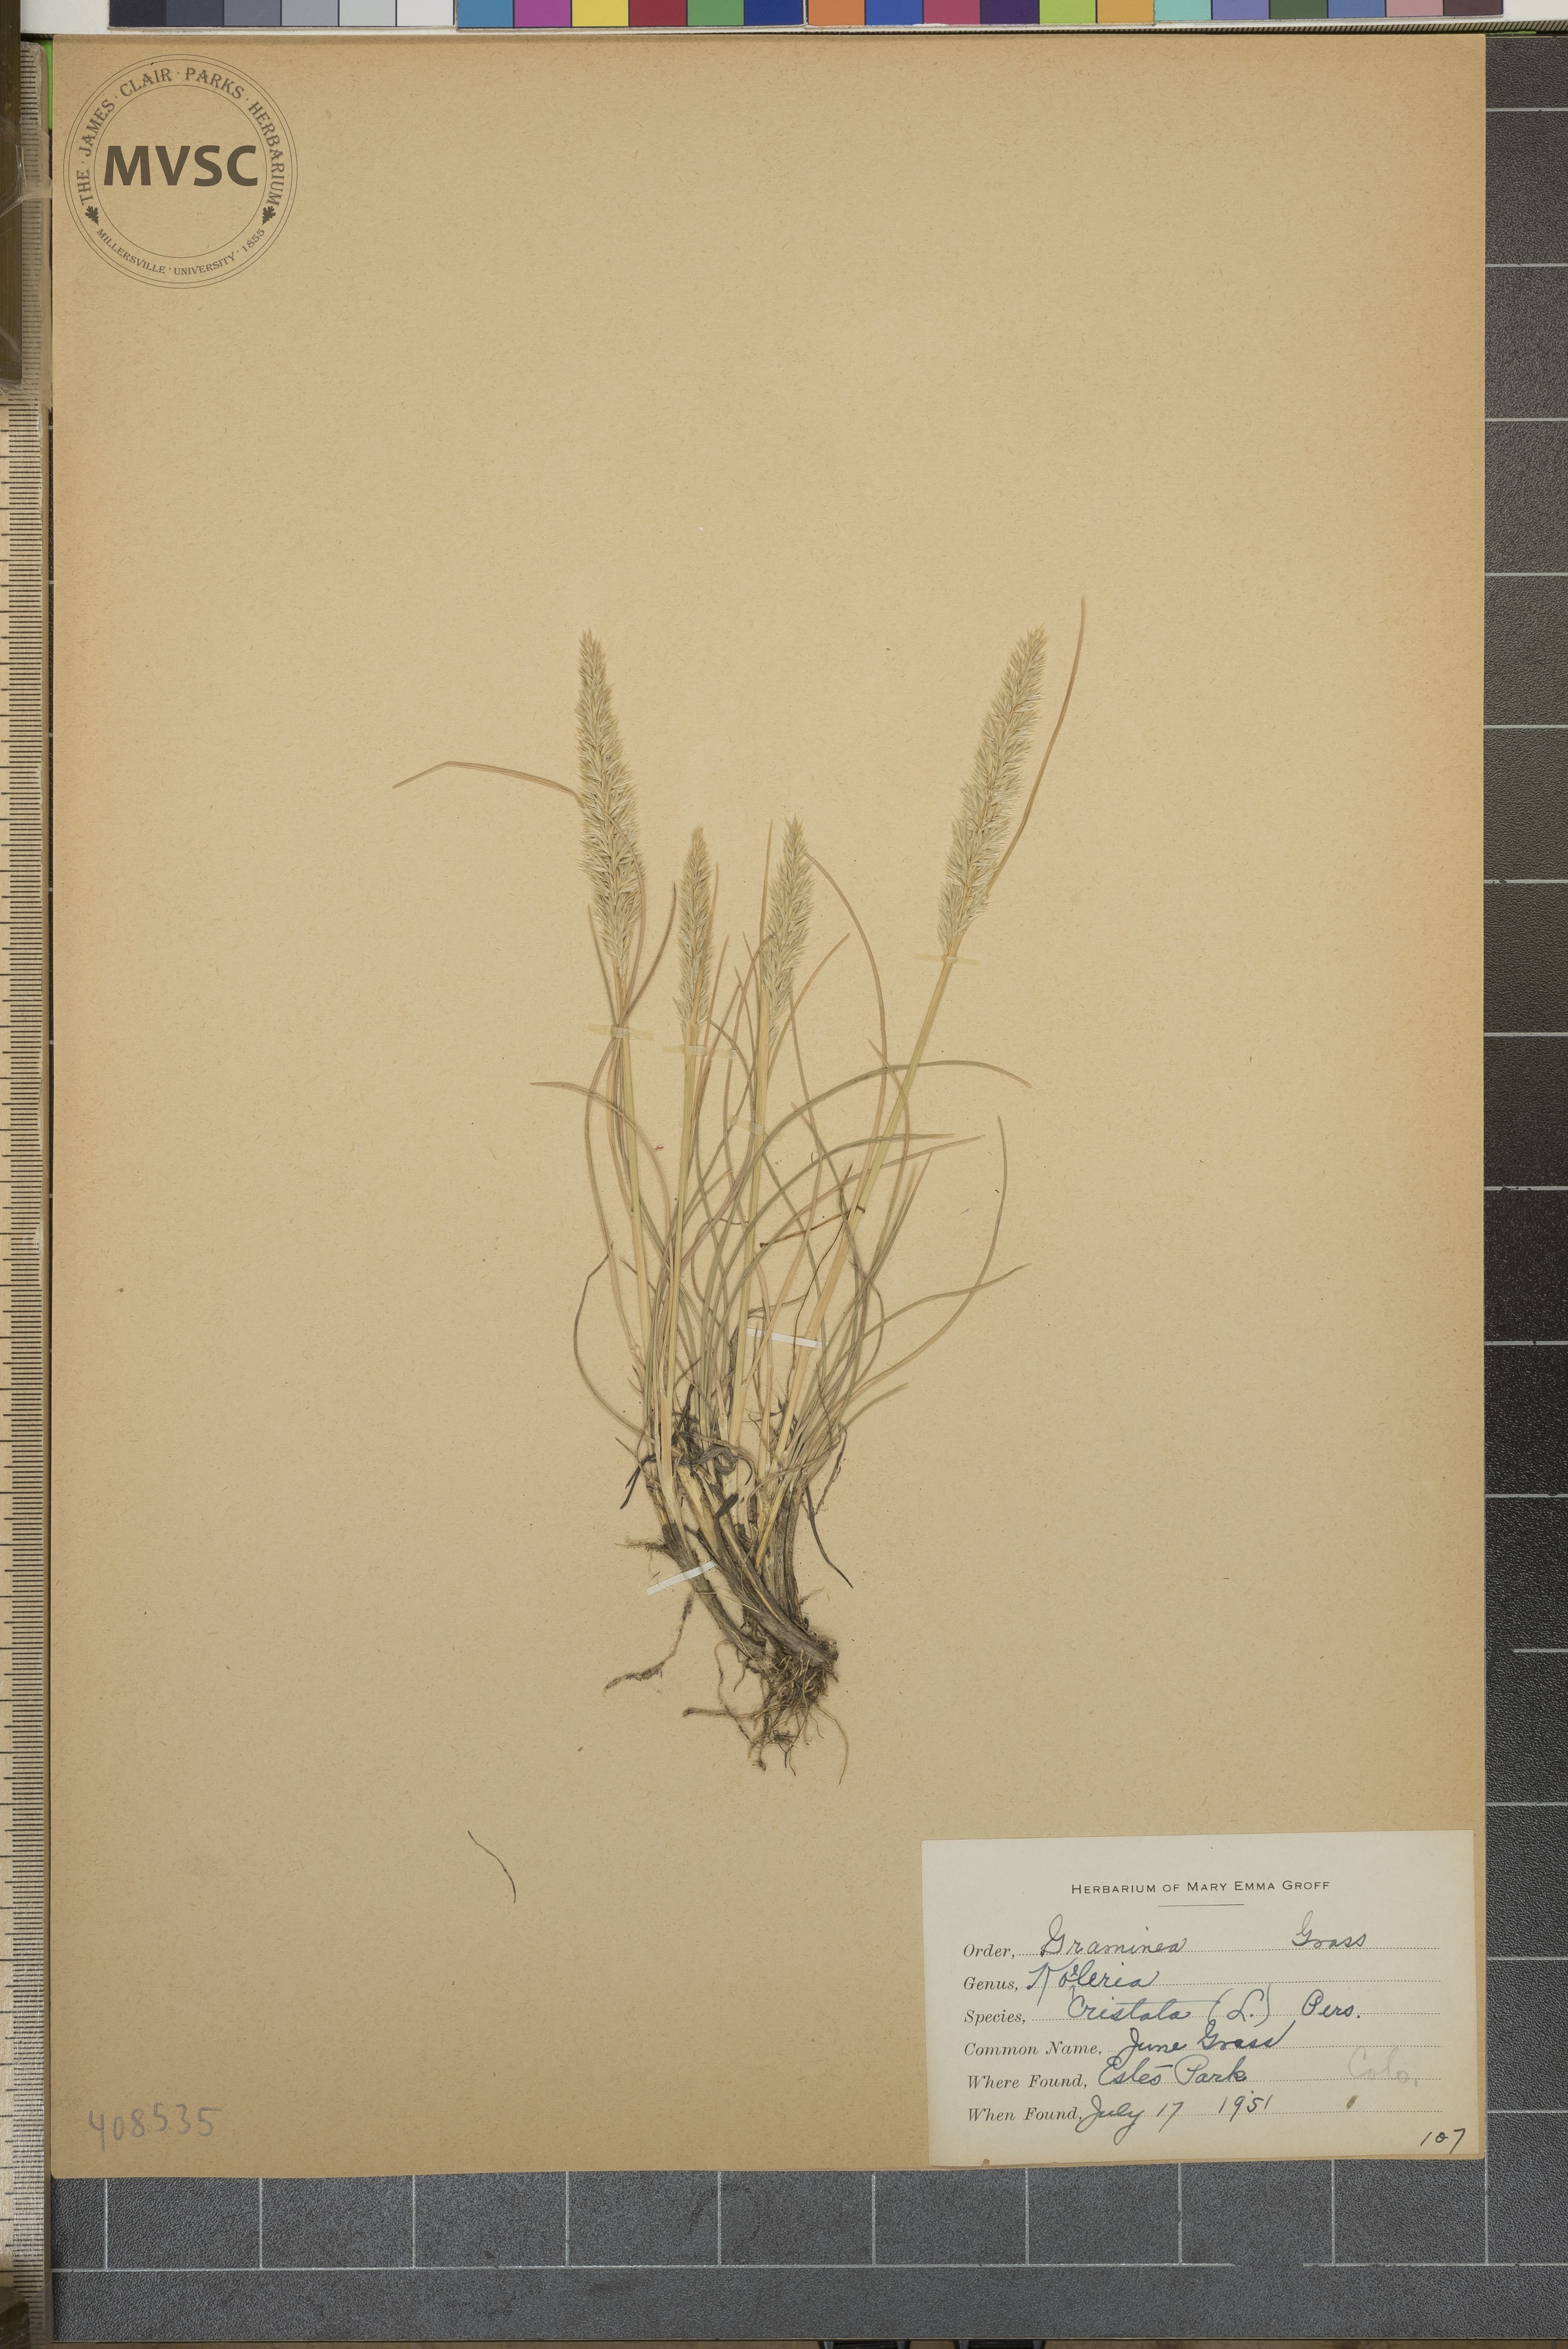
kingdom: Plantae
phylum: Tracheophyta
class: Liliopsida
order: Poales
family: Poaceae
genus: Koeleria
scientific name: Koeleria cristata
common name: June Grass
